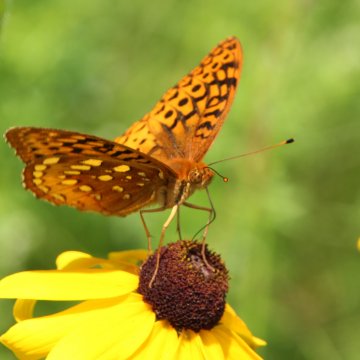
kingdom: Animalia
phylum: Arthropoda
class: Insecta
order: Lepidoptera
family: Nymphalidae
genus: Speyeria
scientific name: Speyeria cybele
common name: Great Spangled Fritillary
